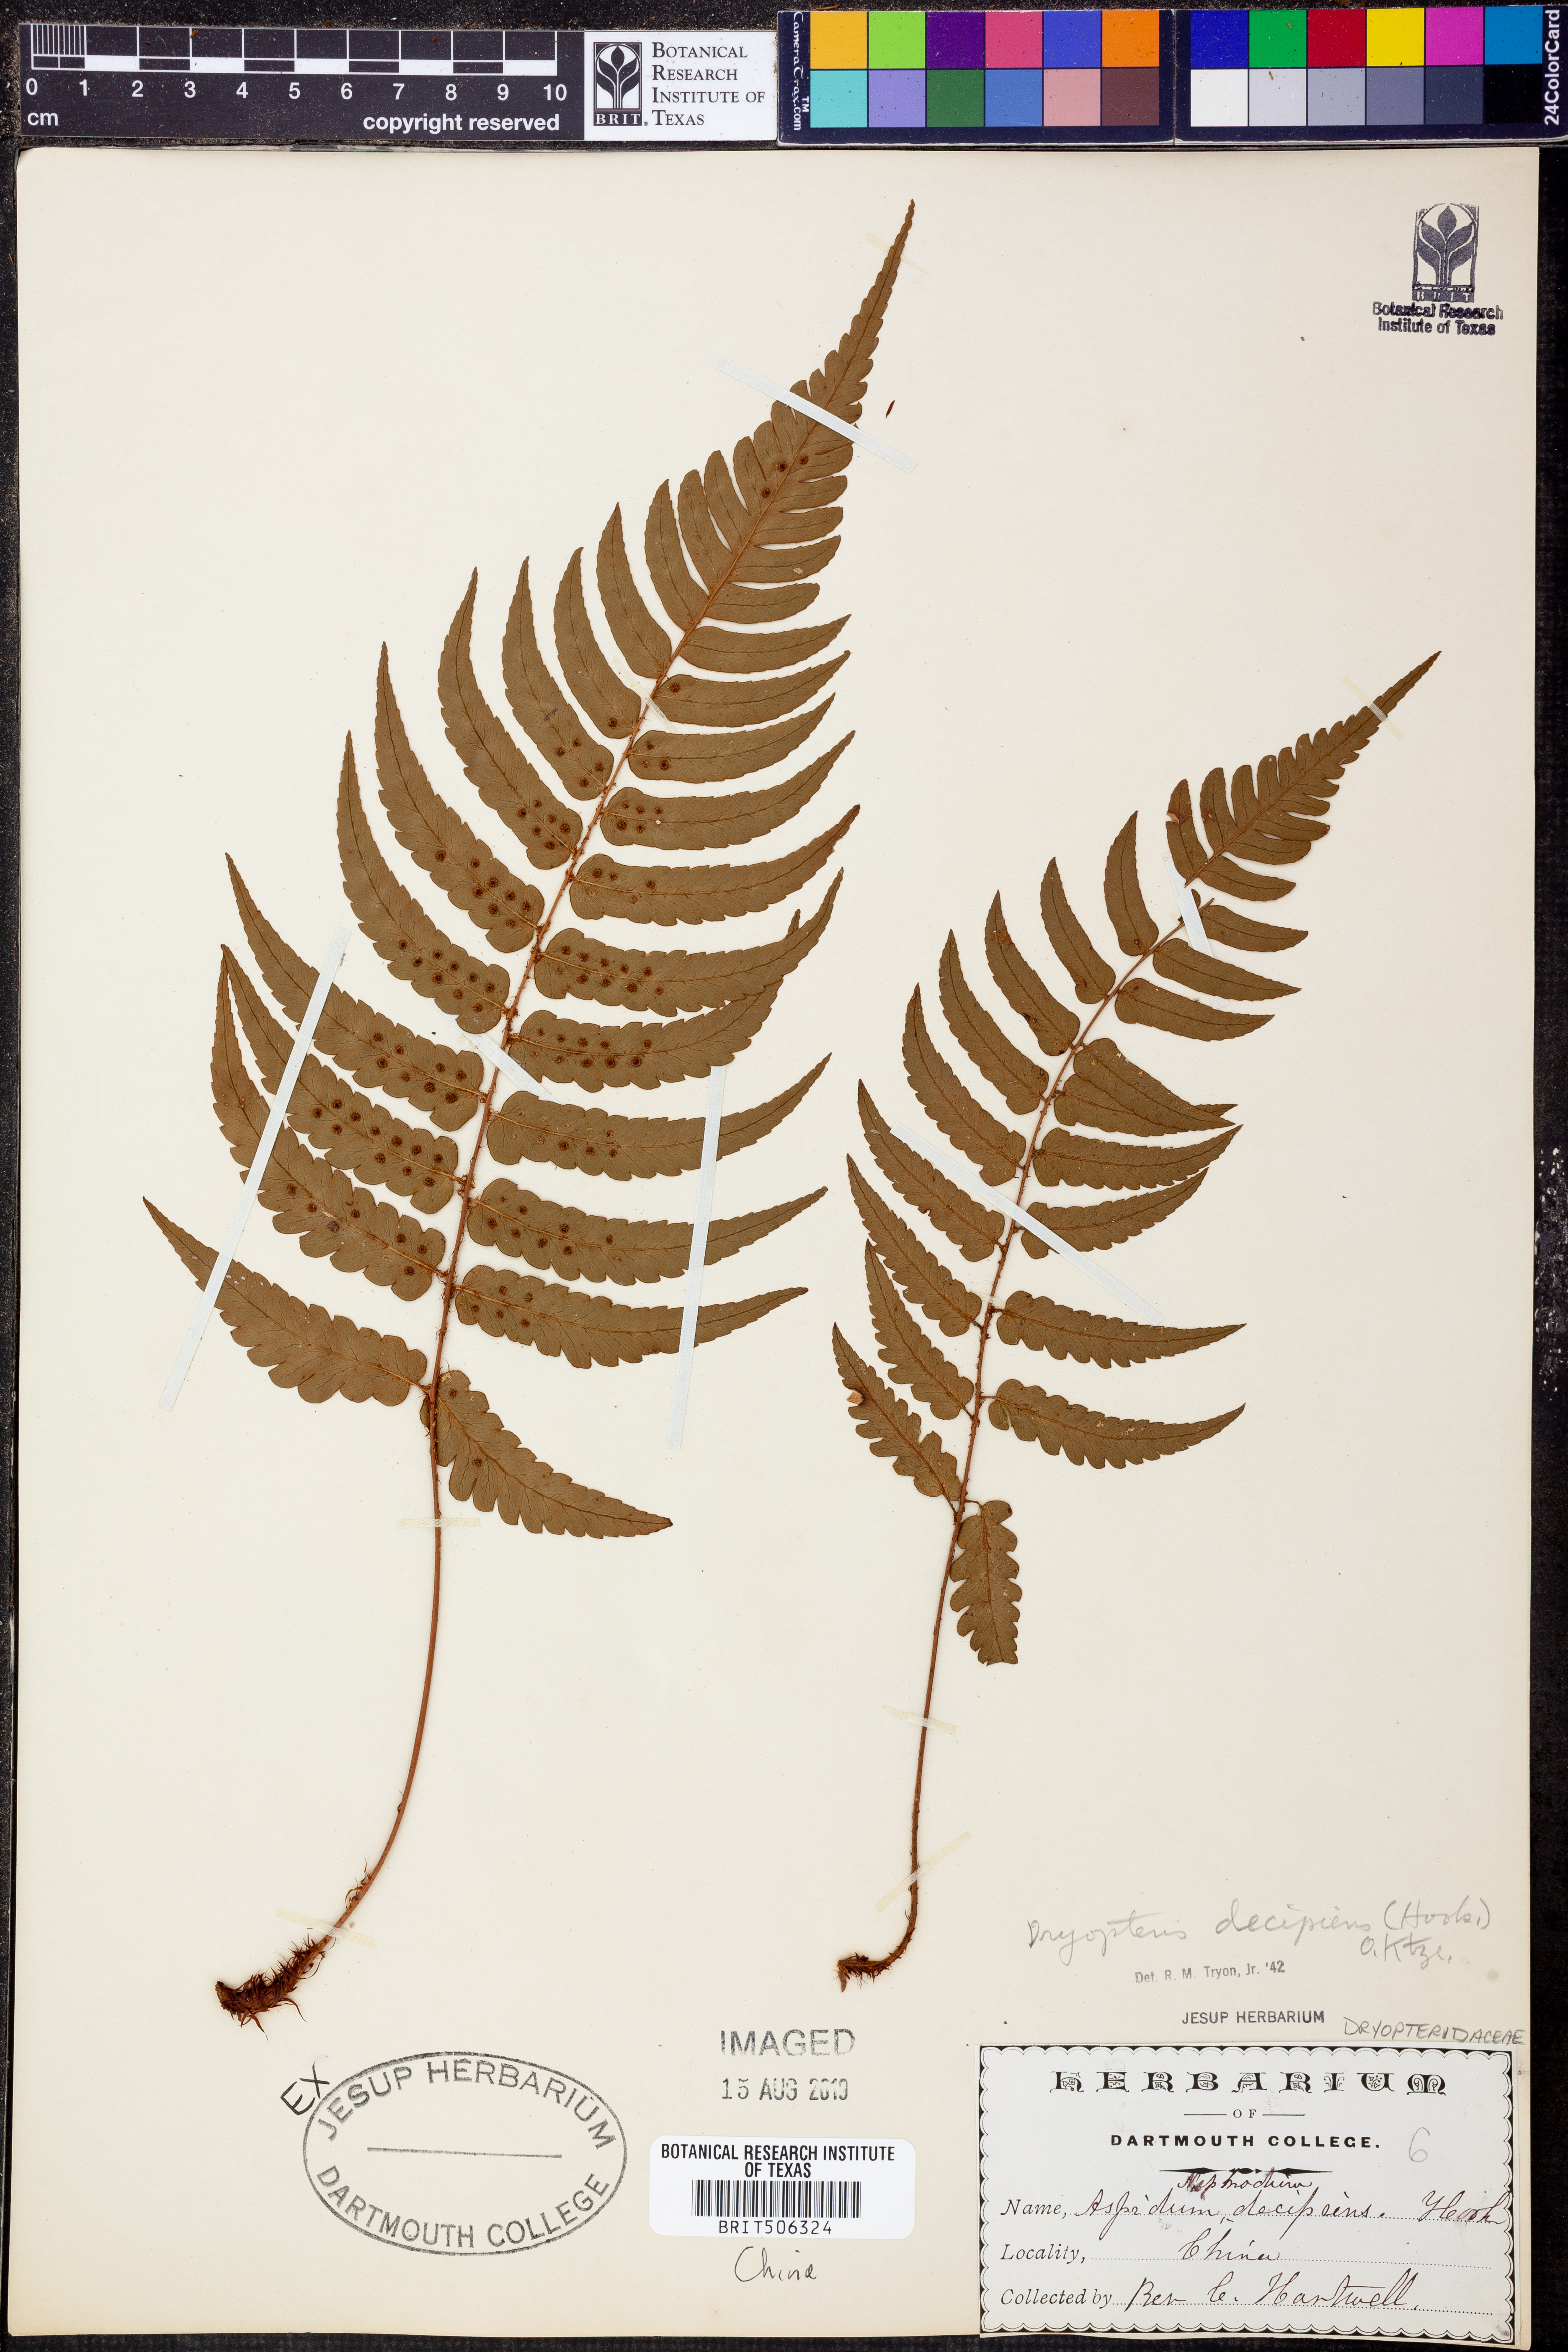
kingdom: Plantae
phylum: Tracheophyta
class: Polypodiopsida
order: Polypodiales
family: Dryopteridaceae
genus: Dryopteris
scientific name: Dryopteris decipiens
